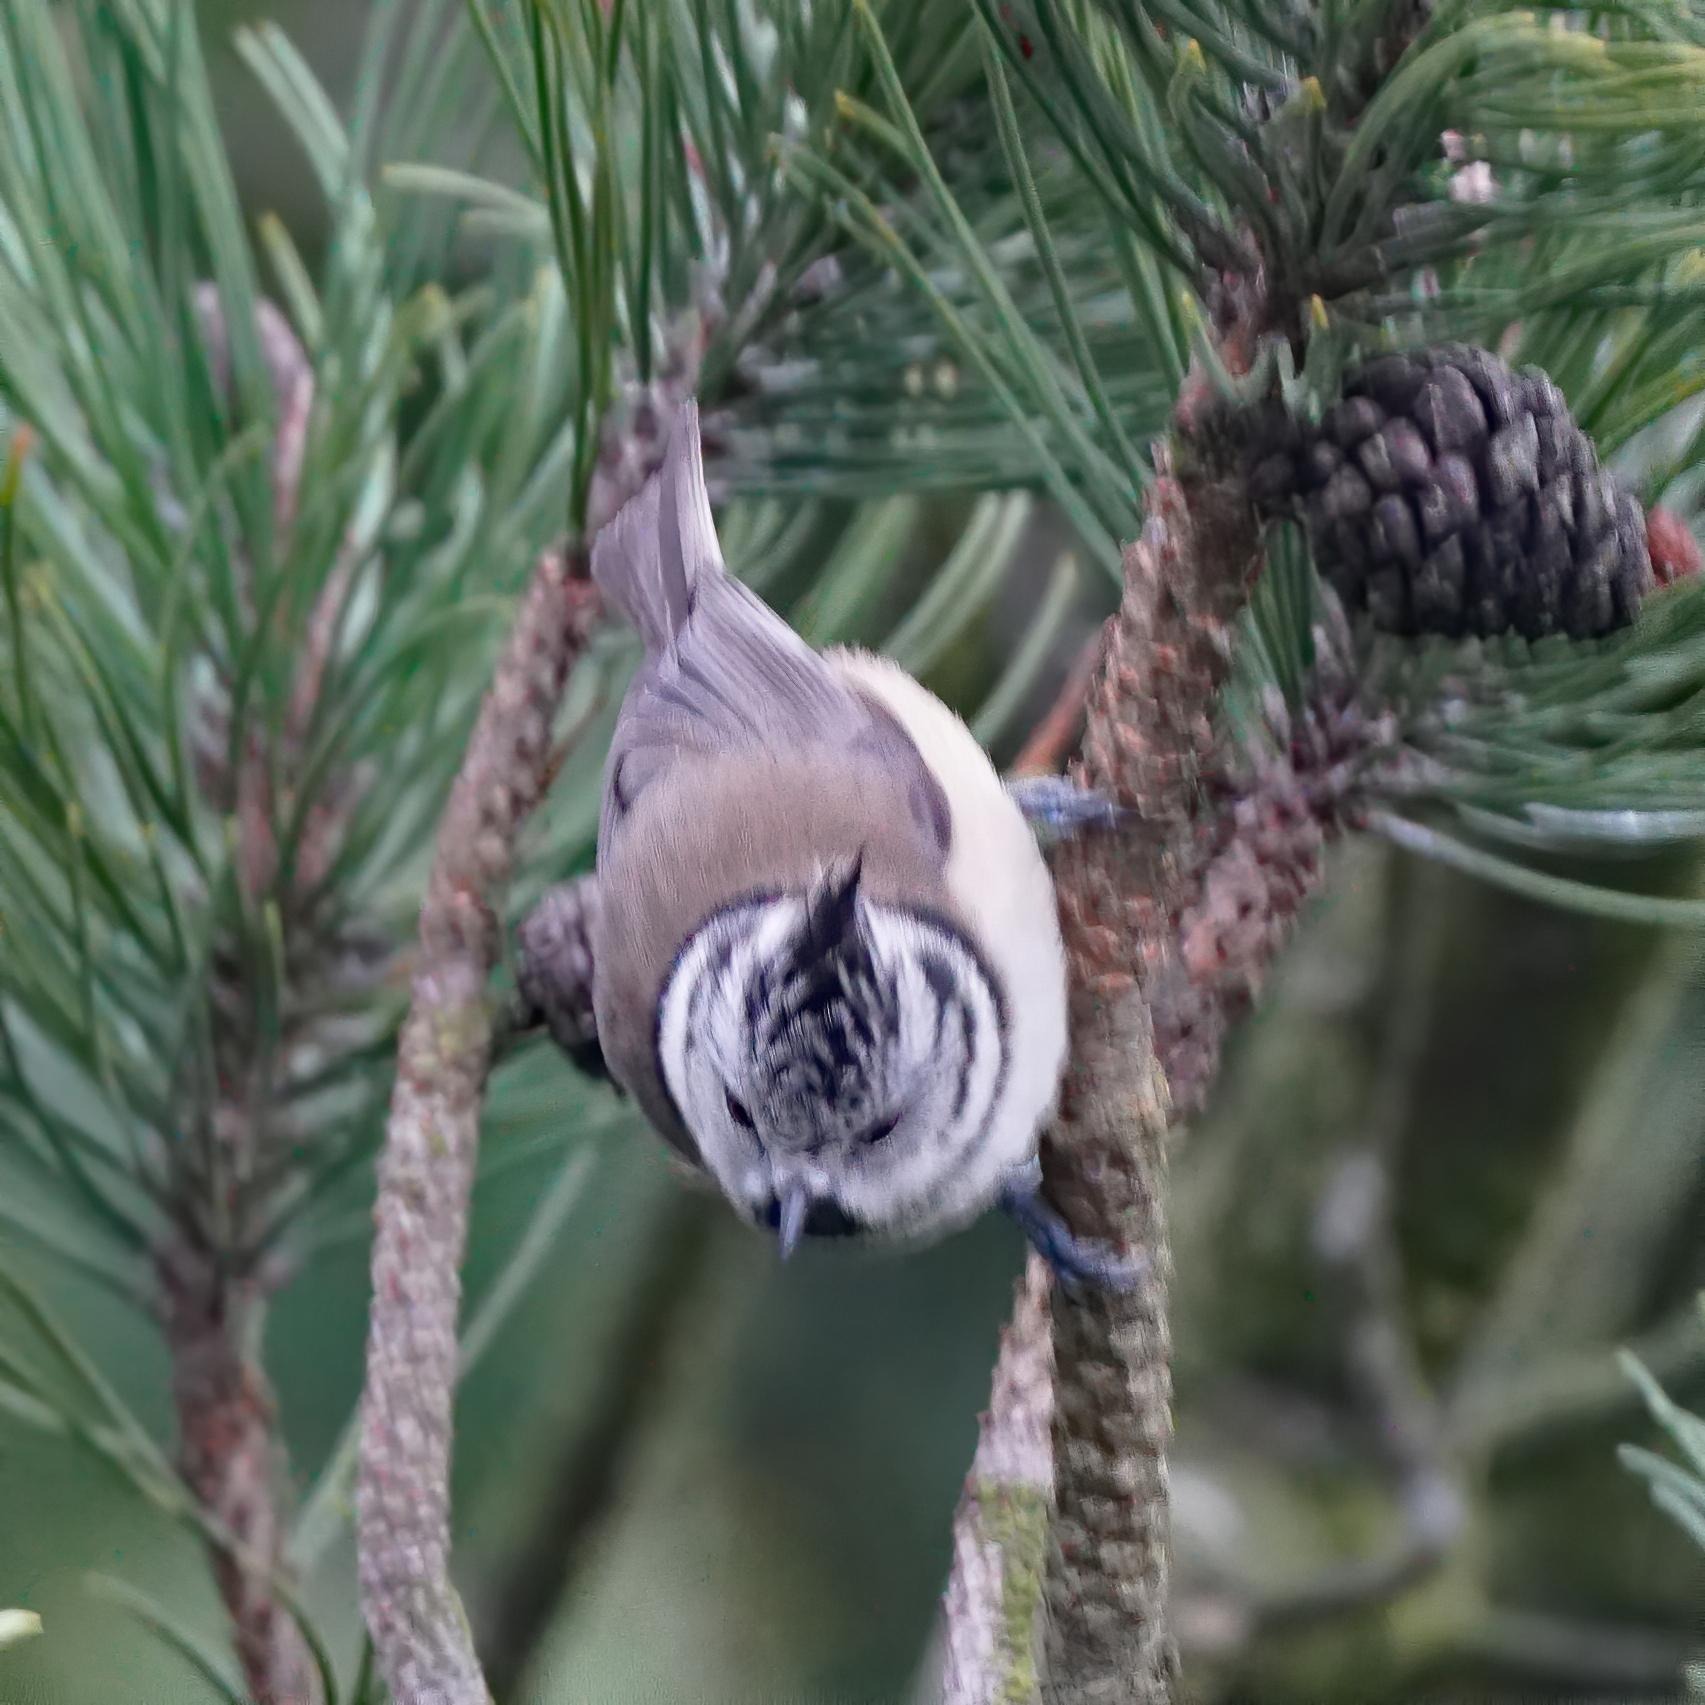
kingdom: Animalia
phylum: Chordata
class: Aves
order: Passeriformes
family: Paridae
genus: Lophophanes
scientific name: Lophophanes cristatus
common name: Topmejse
